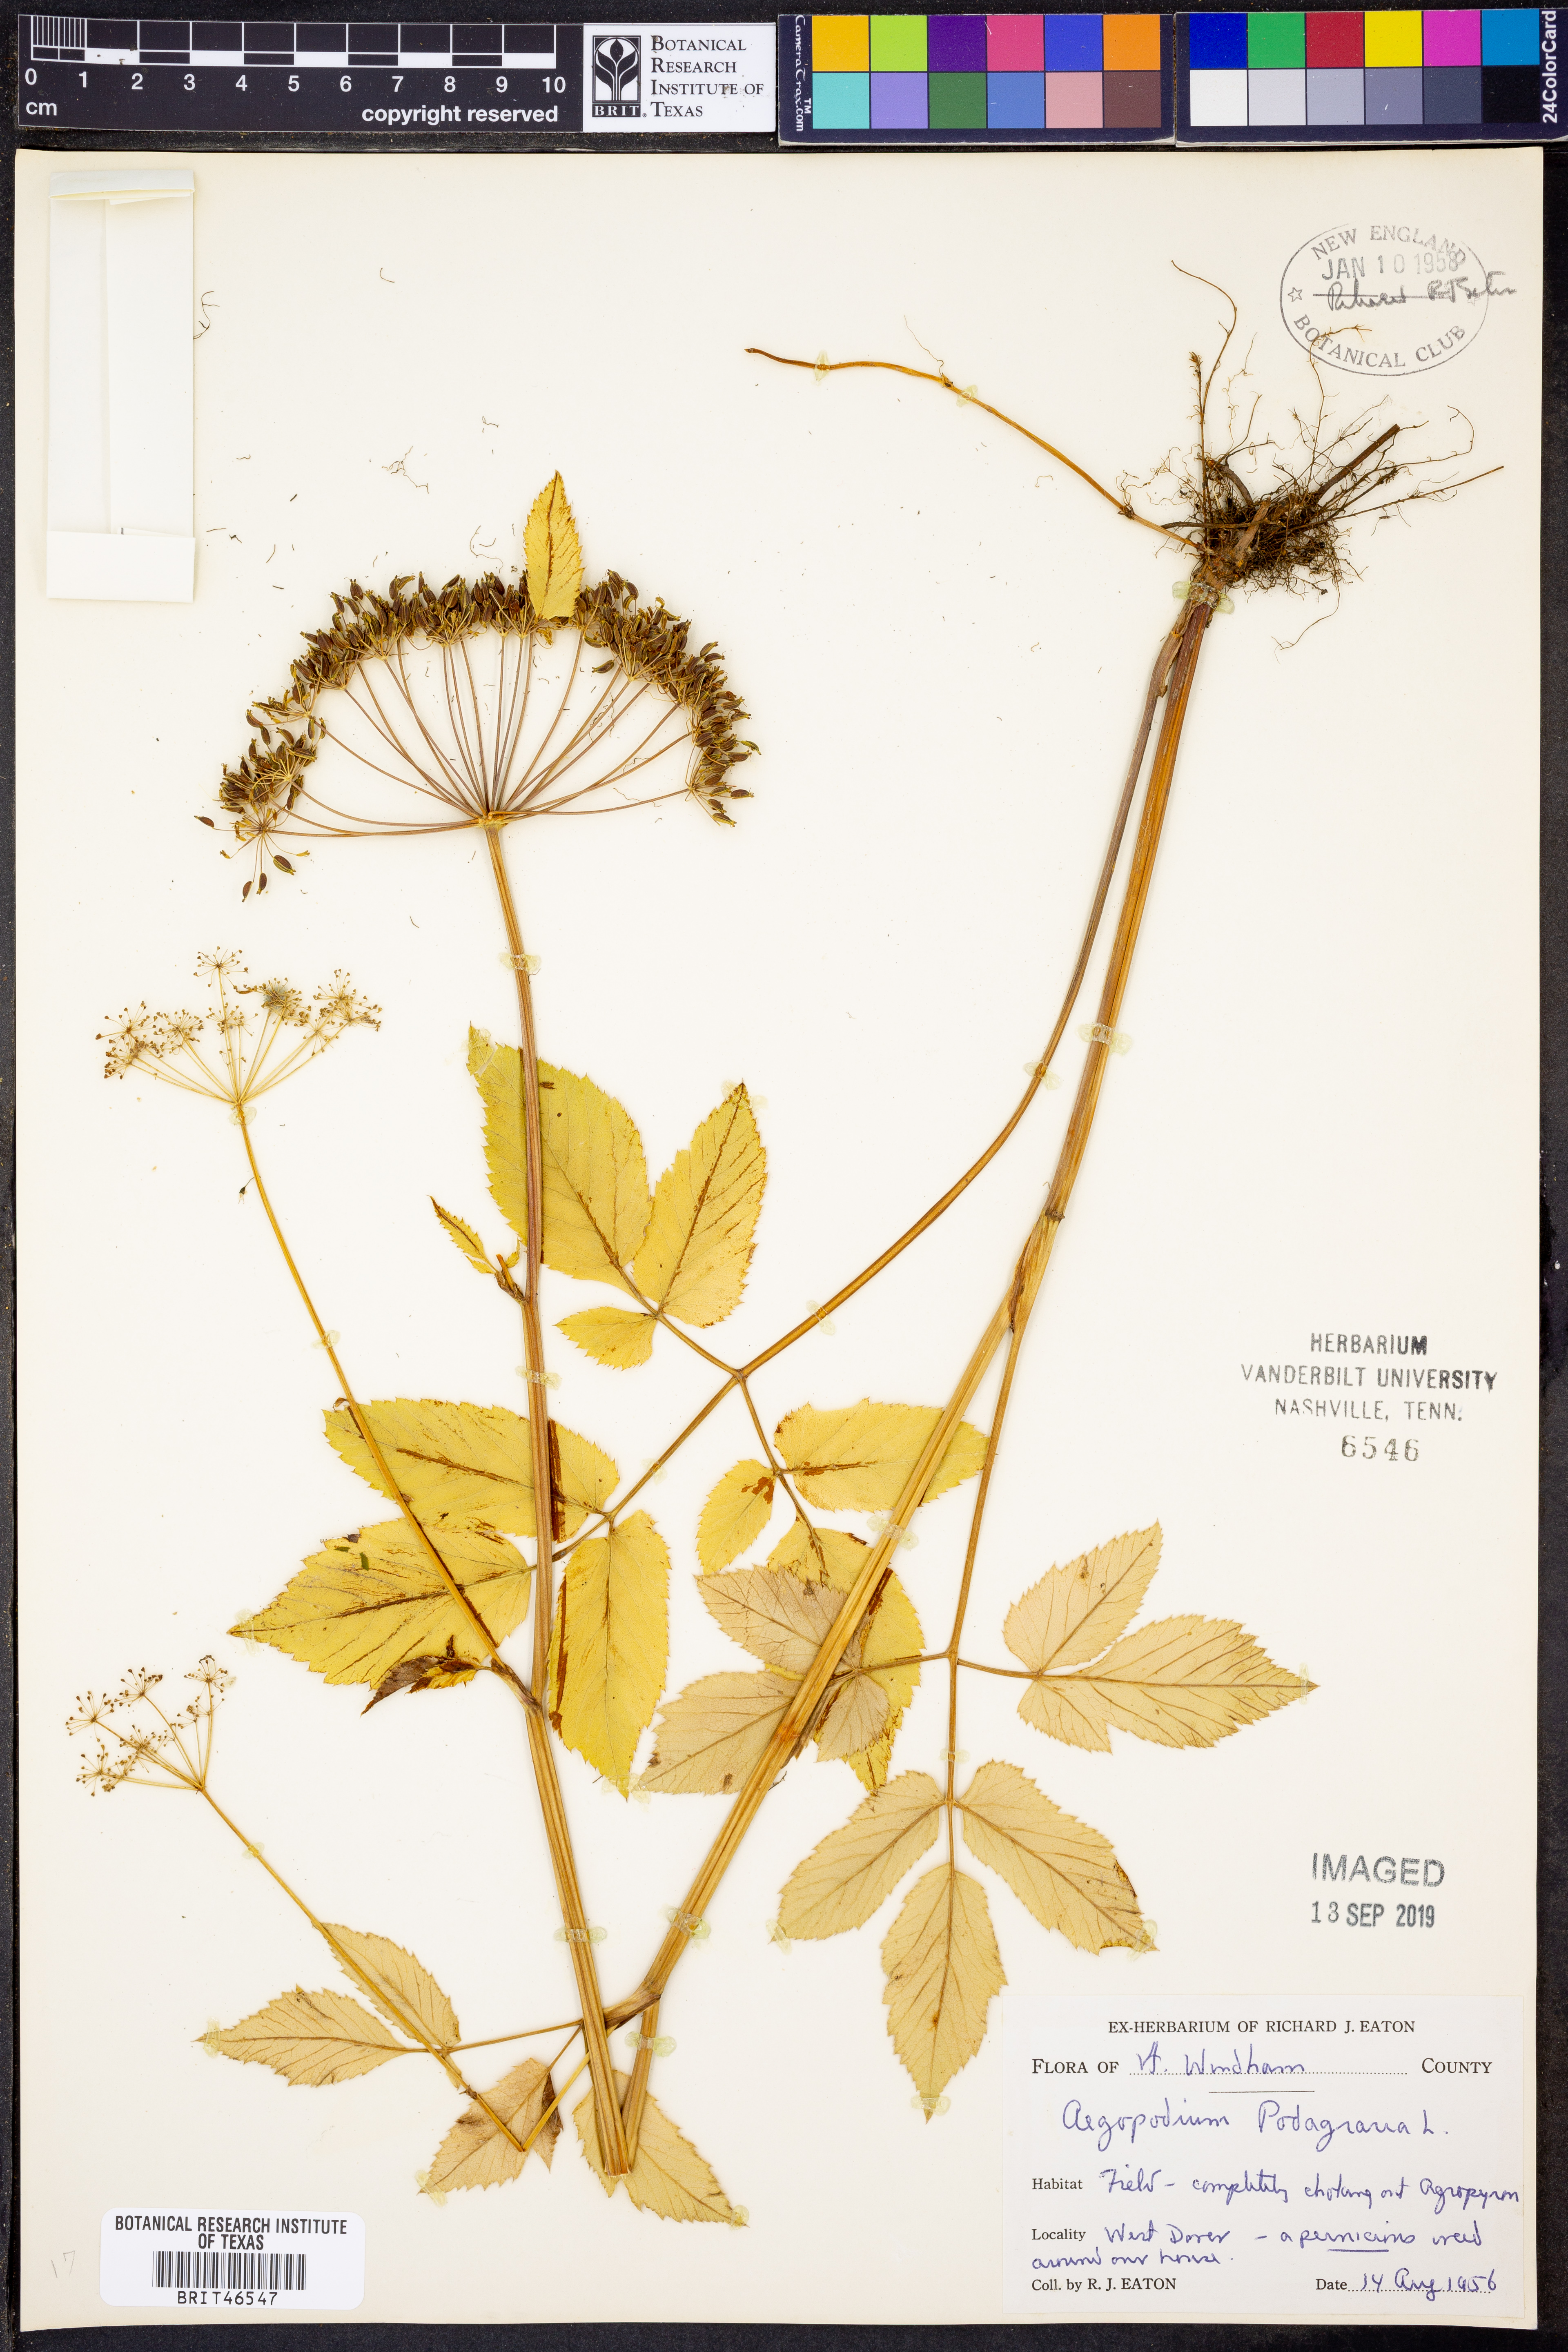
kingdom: Plantae
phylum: Tracheophyta
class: Magnoliopsida
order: Apiales
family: Apiaceae
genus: Aegopodium
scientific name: Aegopodium podagraria
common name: Ground-elder
